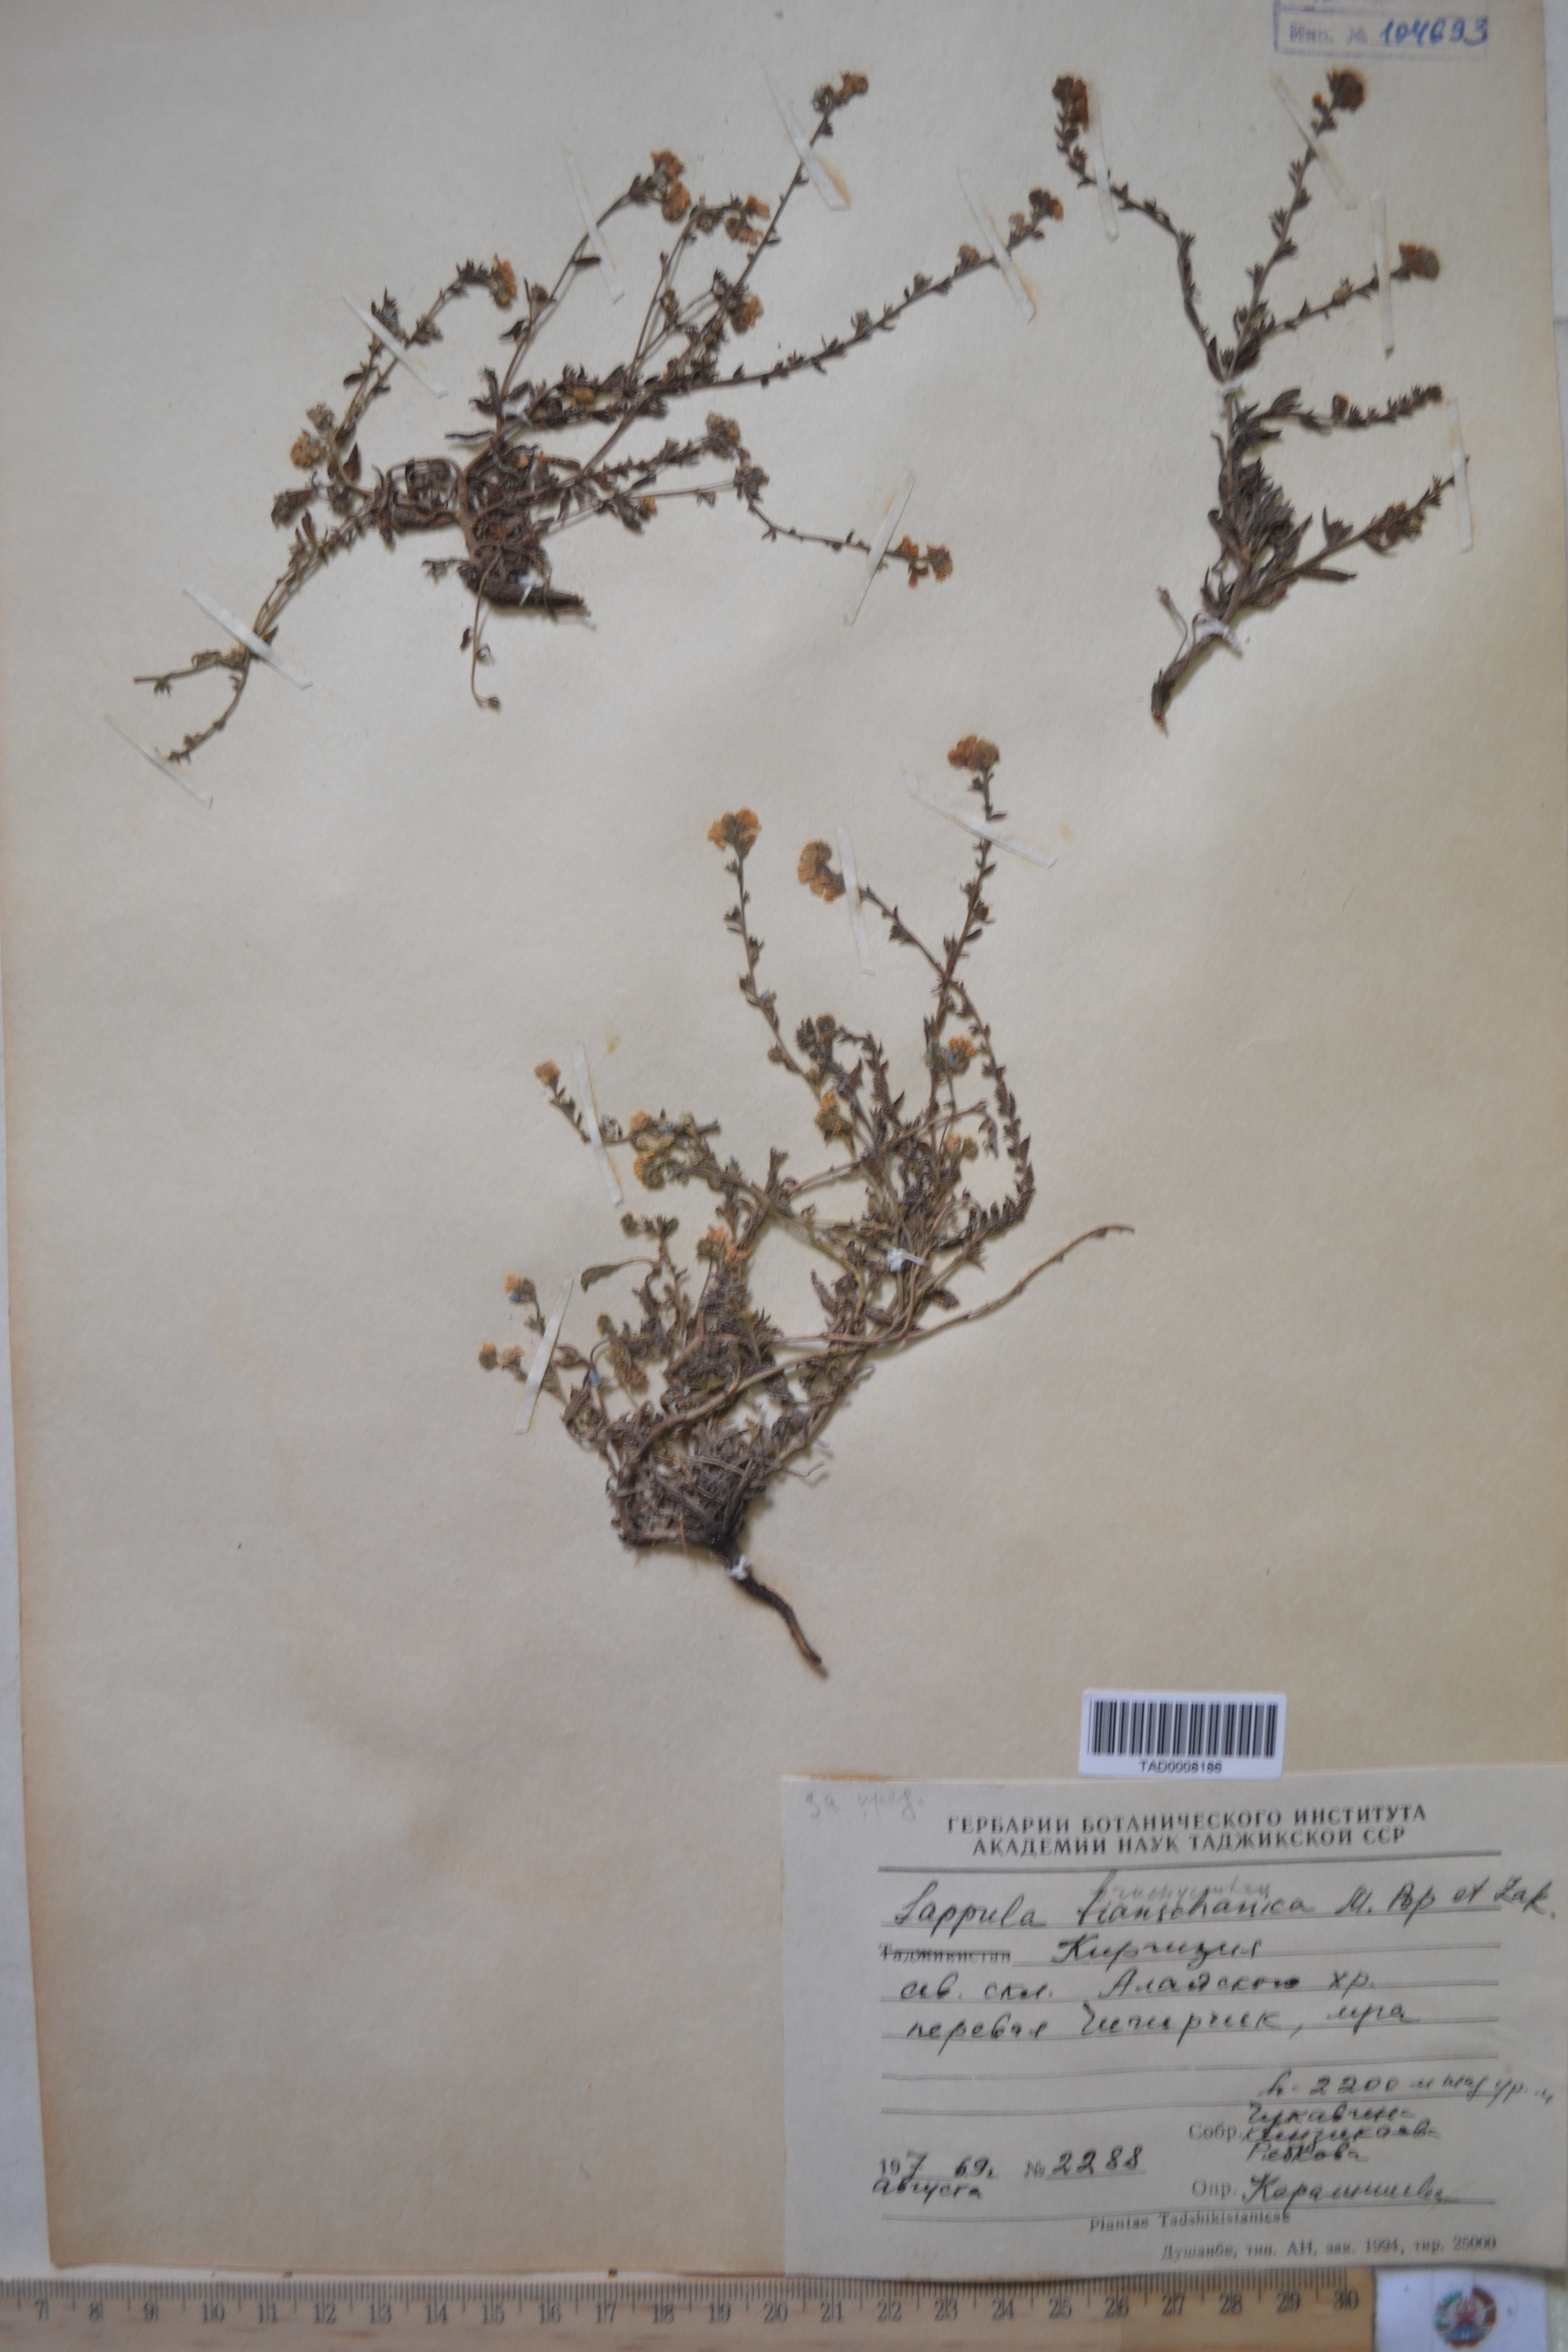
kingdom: Plantae
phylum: Tracheophyta
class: Magnoliopsida
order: Boraginales
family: Boraginaceae
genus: Lappula
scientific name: Lappula brachycentra
